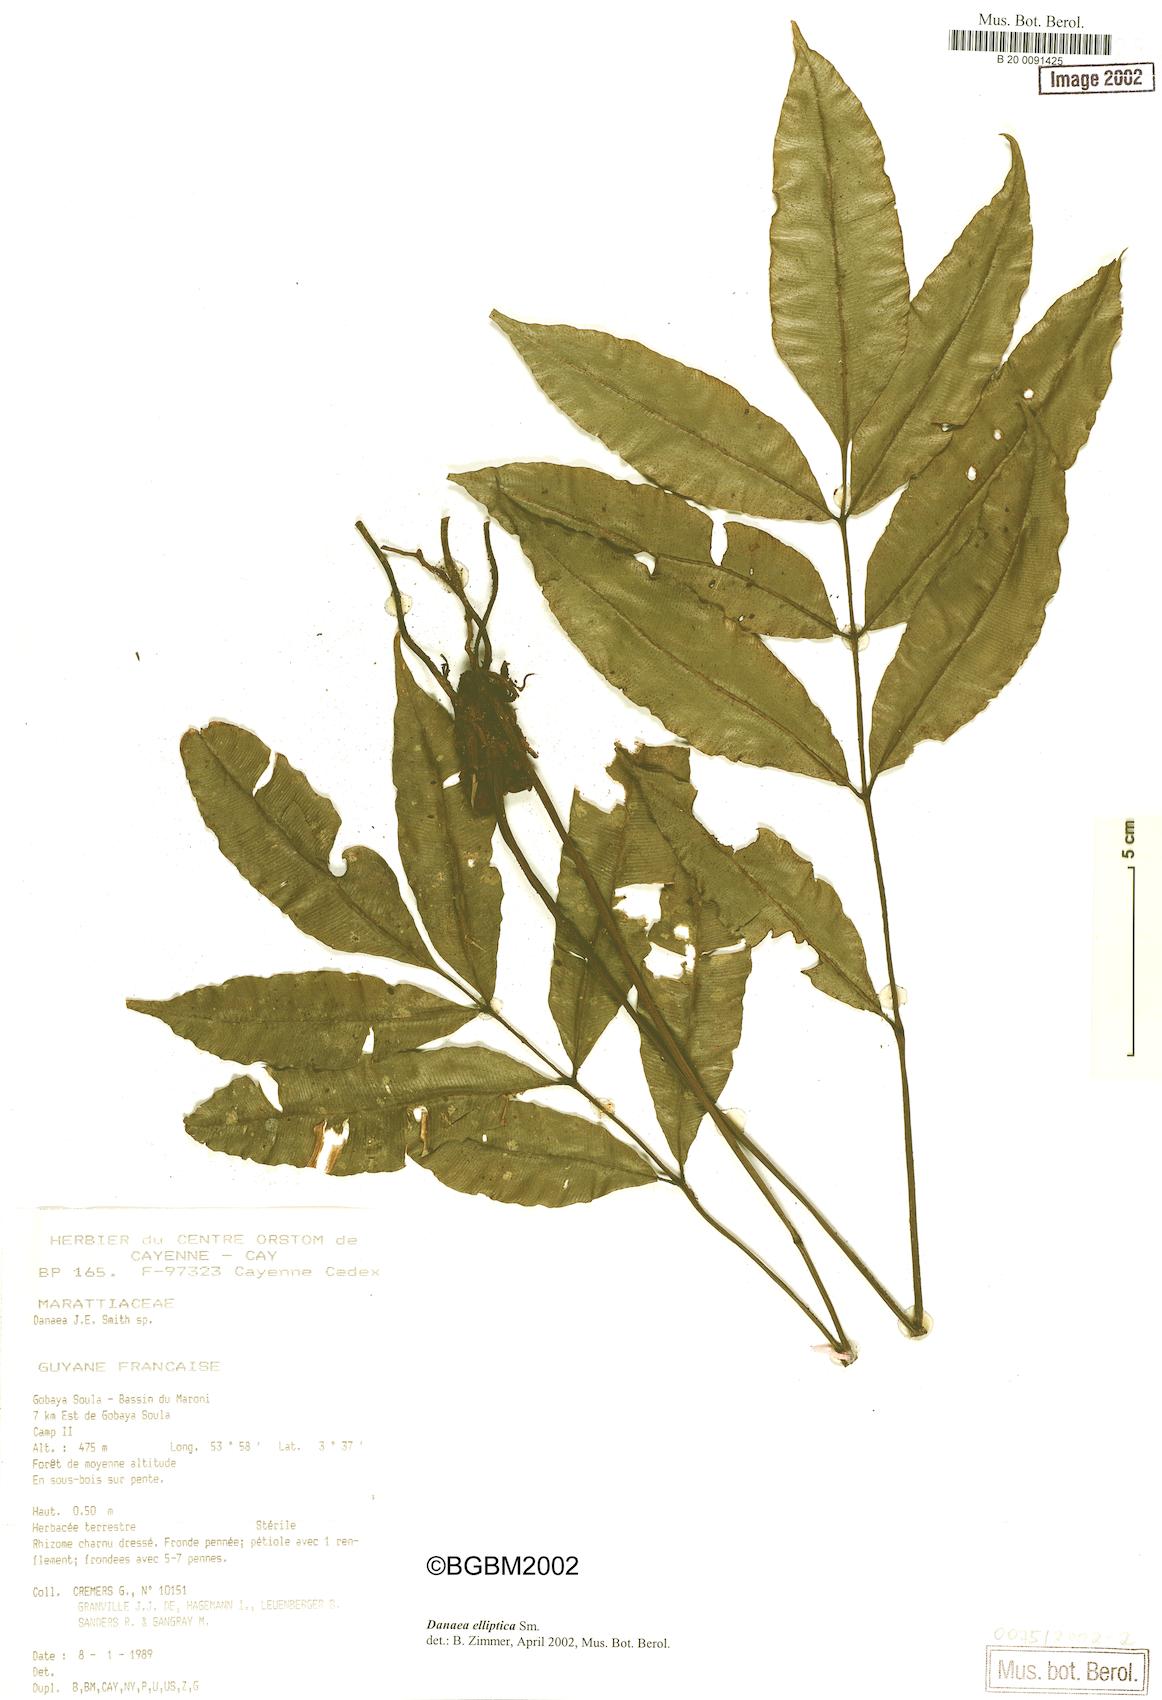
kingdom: Plantae
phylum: Tracheophyta
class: Polypodiopsida
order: Marattiales
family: Marattiaceae
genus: Danaea
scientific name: Danaea nodosa
